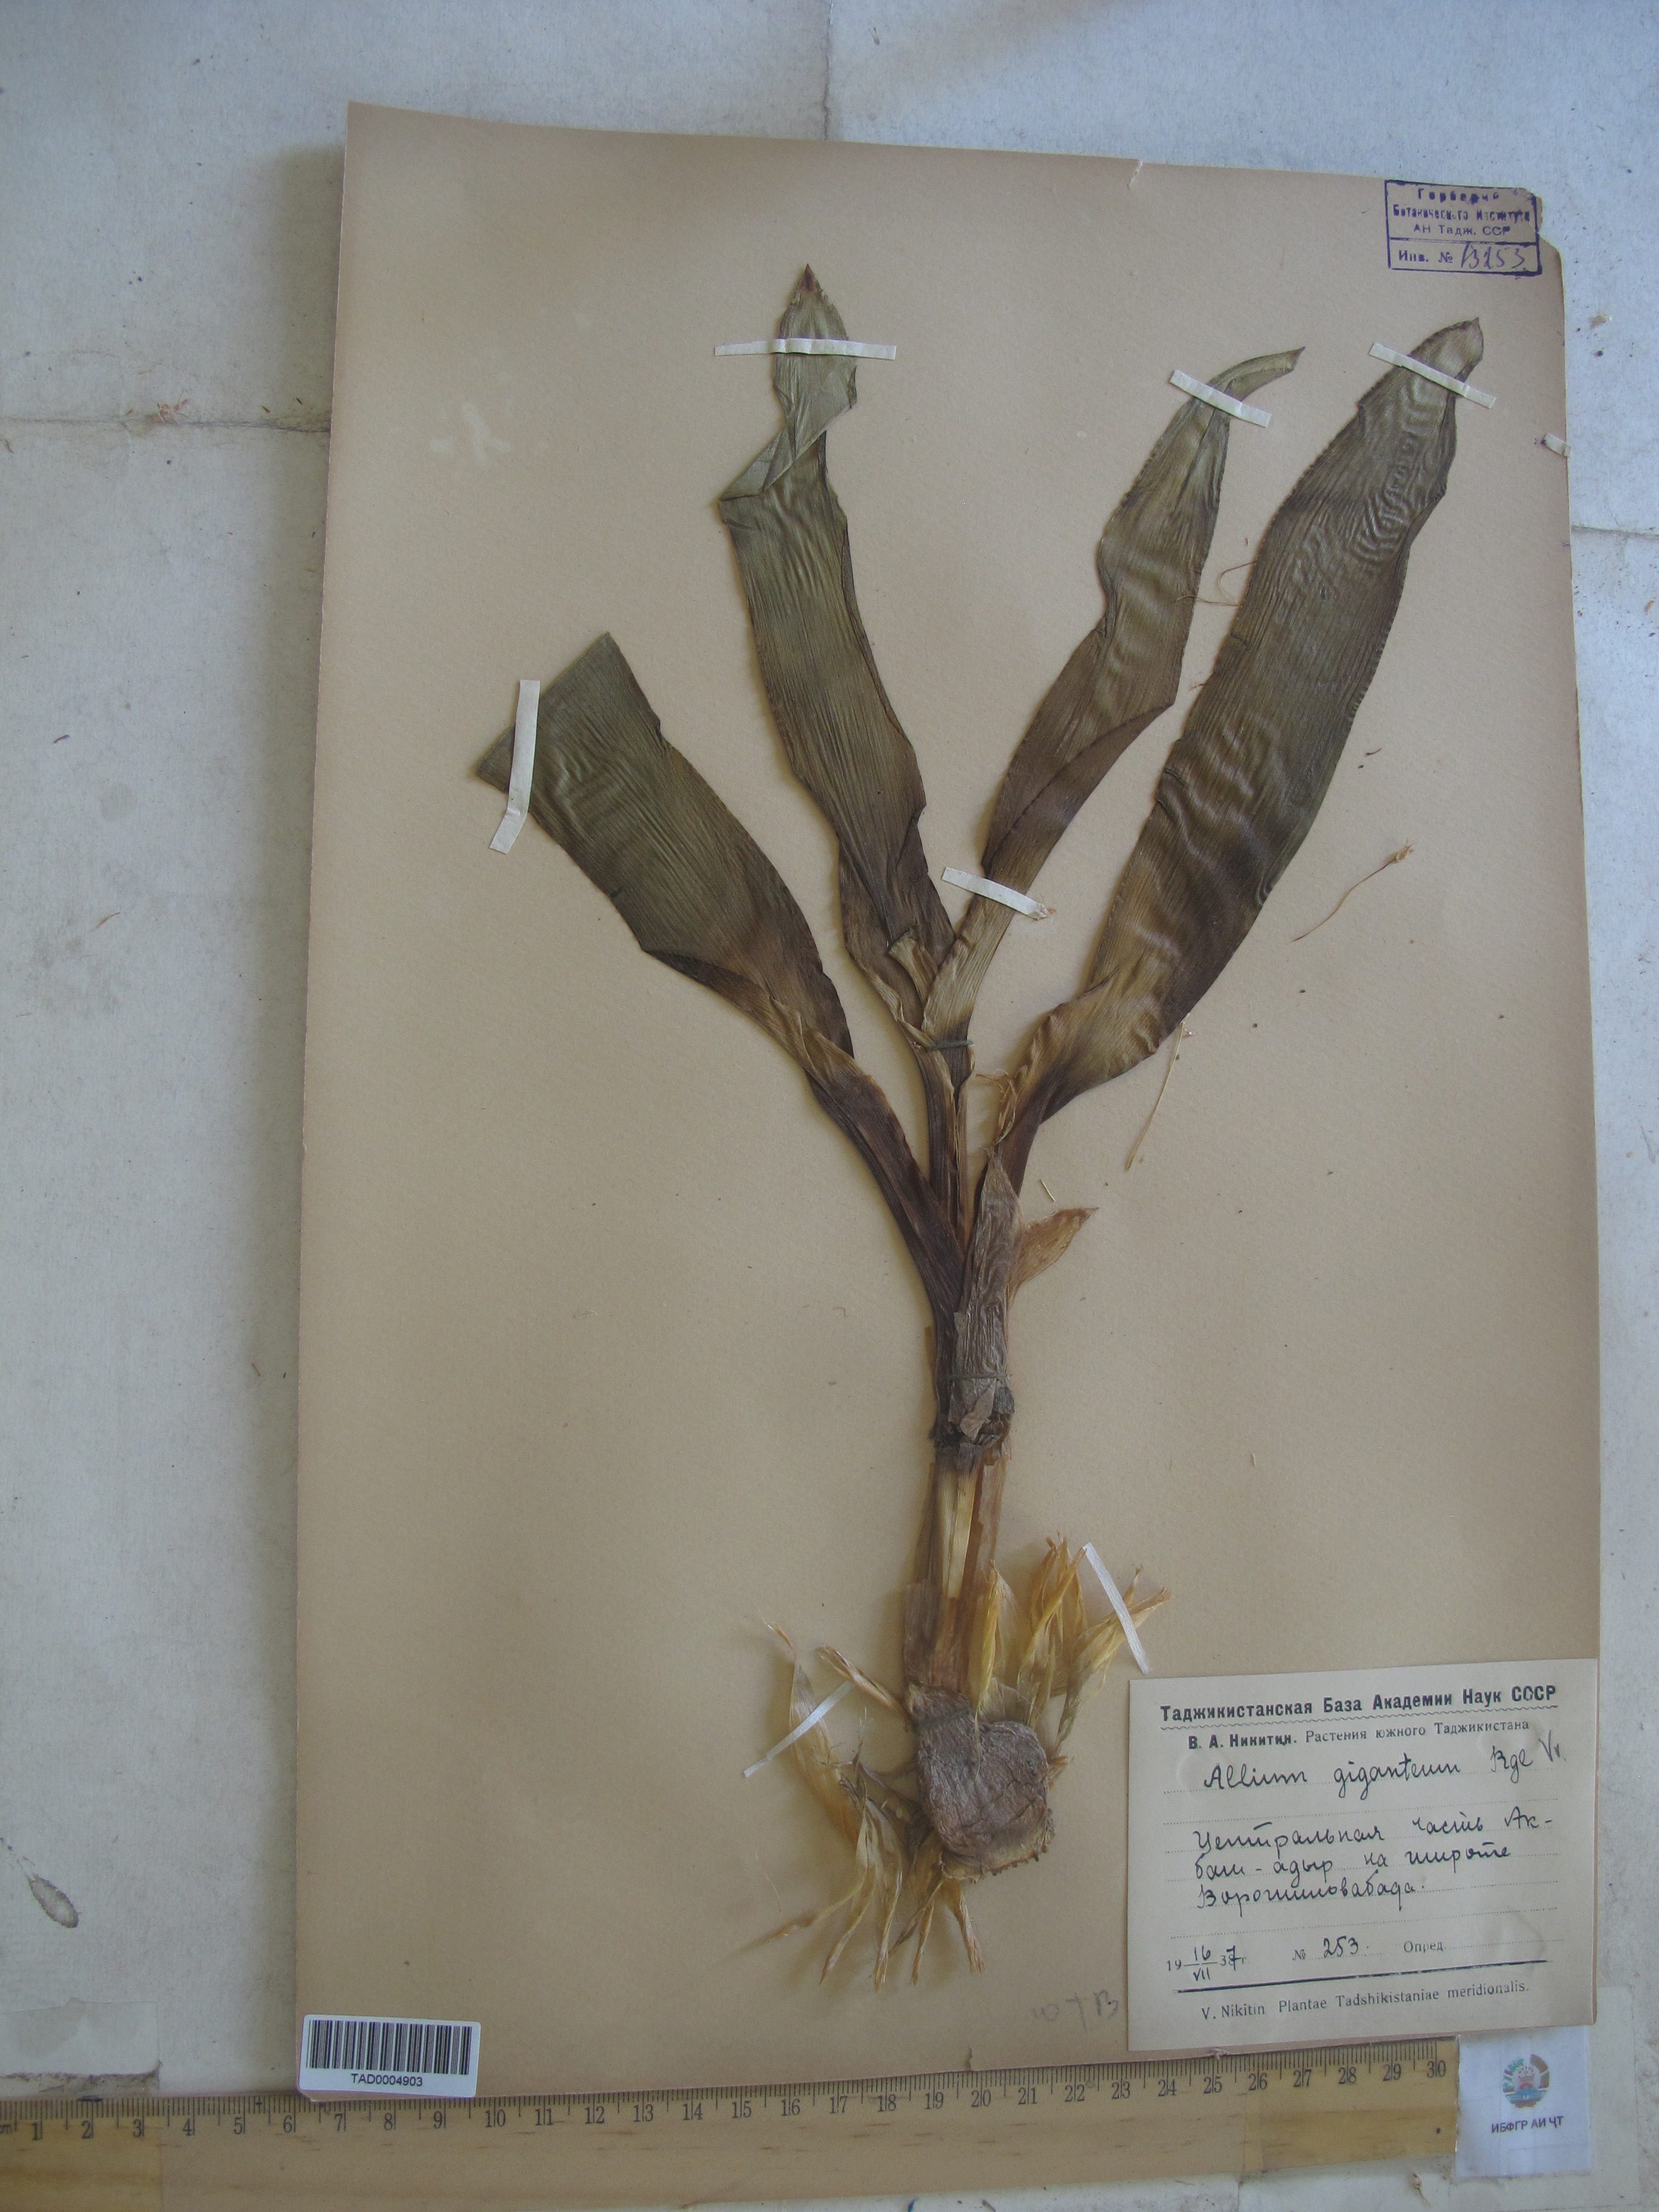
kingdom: Plantae
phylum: Tracheophyta
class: Liliopsida
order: Asparagales
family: Amaryllidaceae
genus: Allium
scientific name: Allium giganteum
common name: Giant onion
